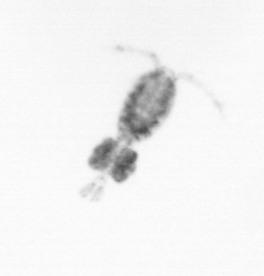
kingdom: Animalia
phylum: Arthropoda
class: Copepoda
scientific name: Copepoda
